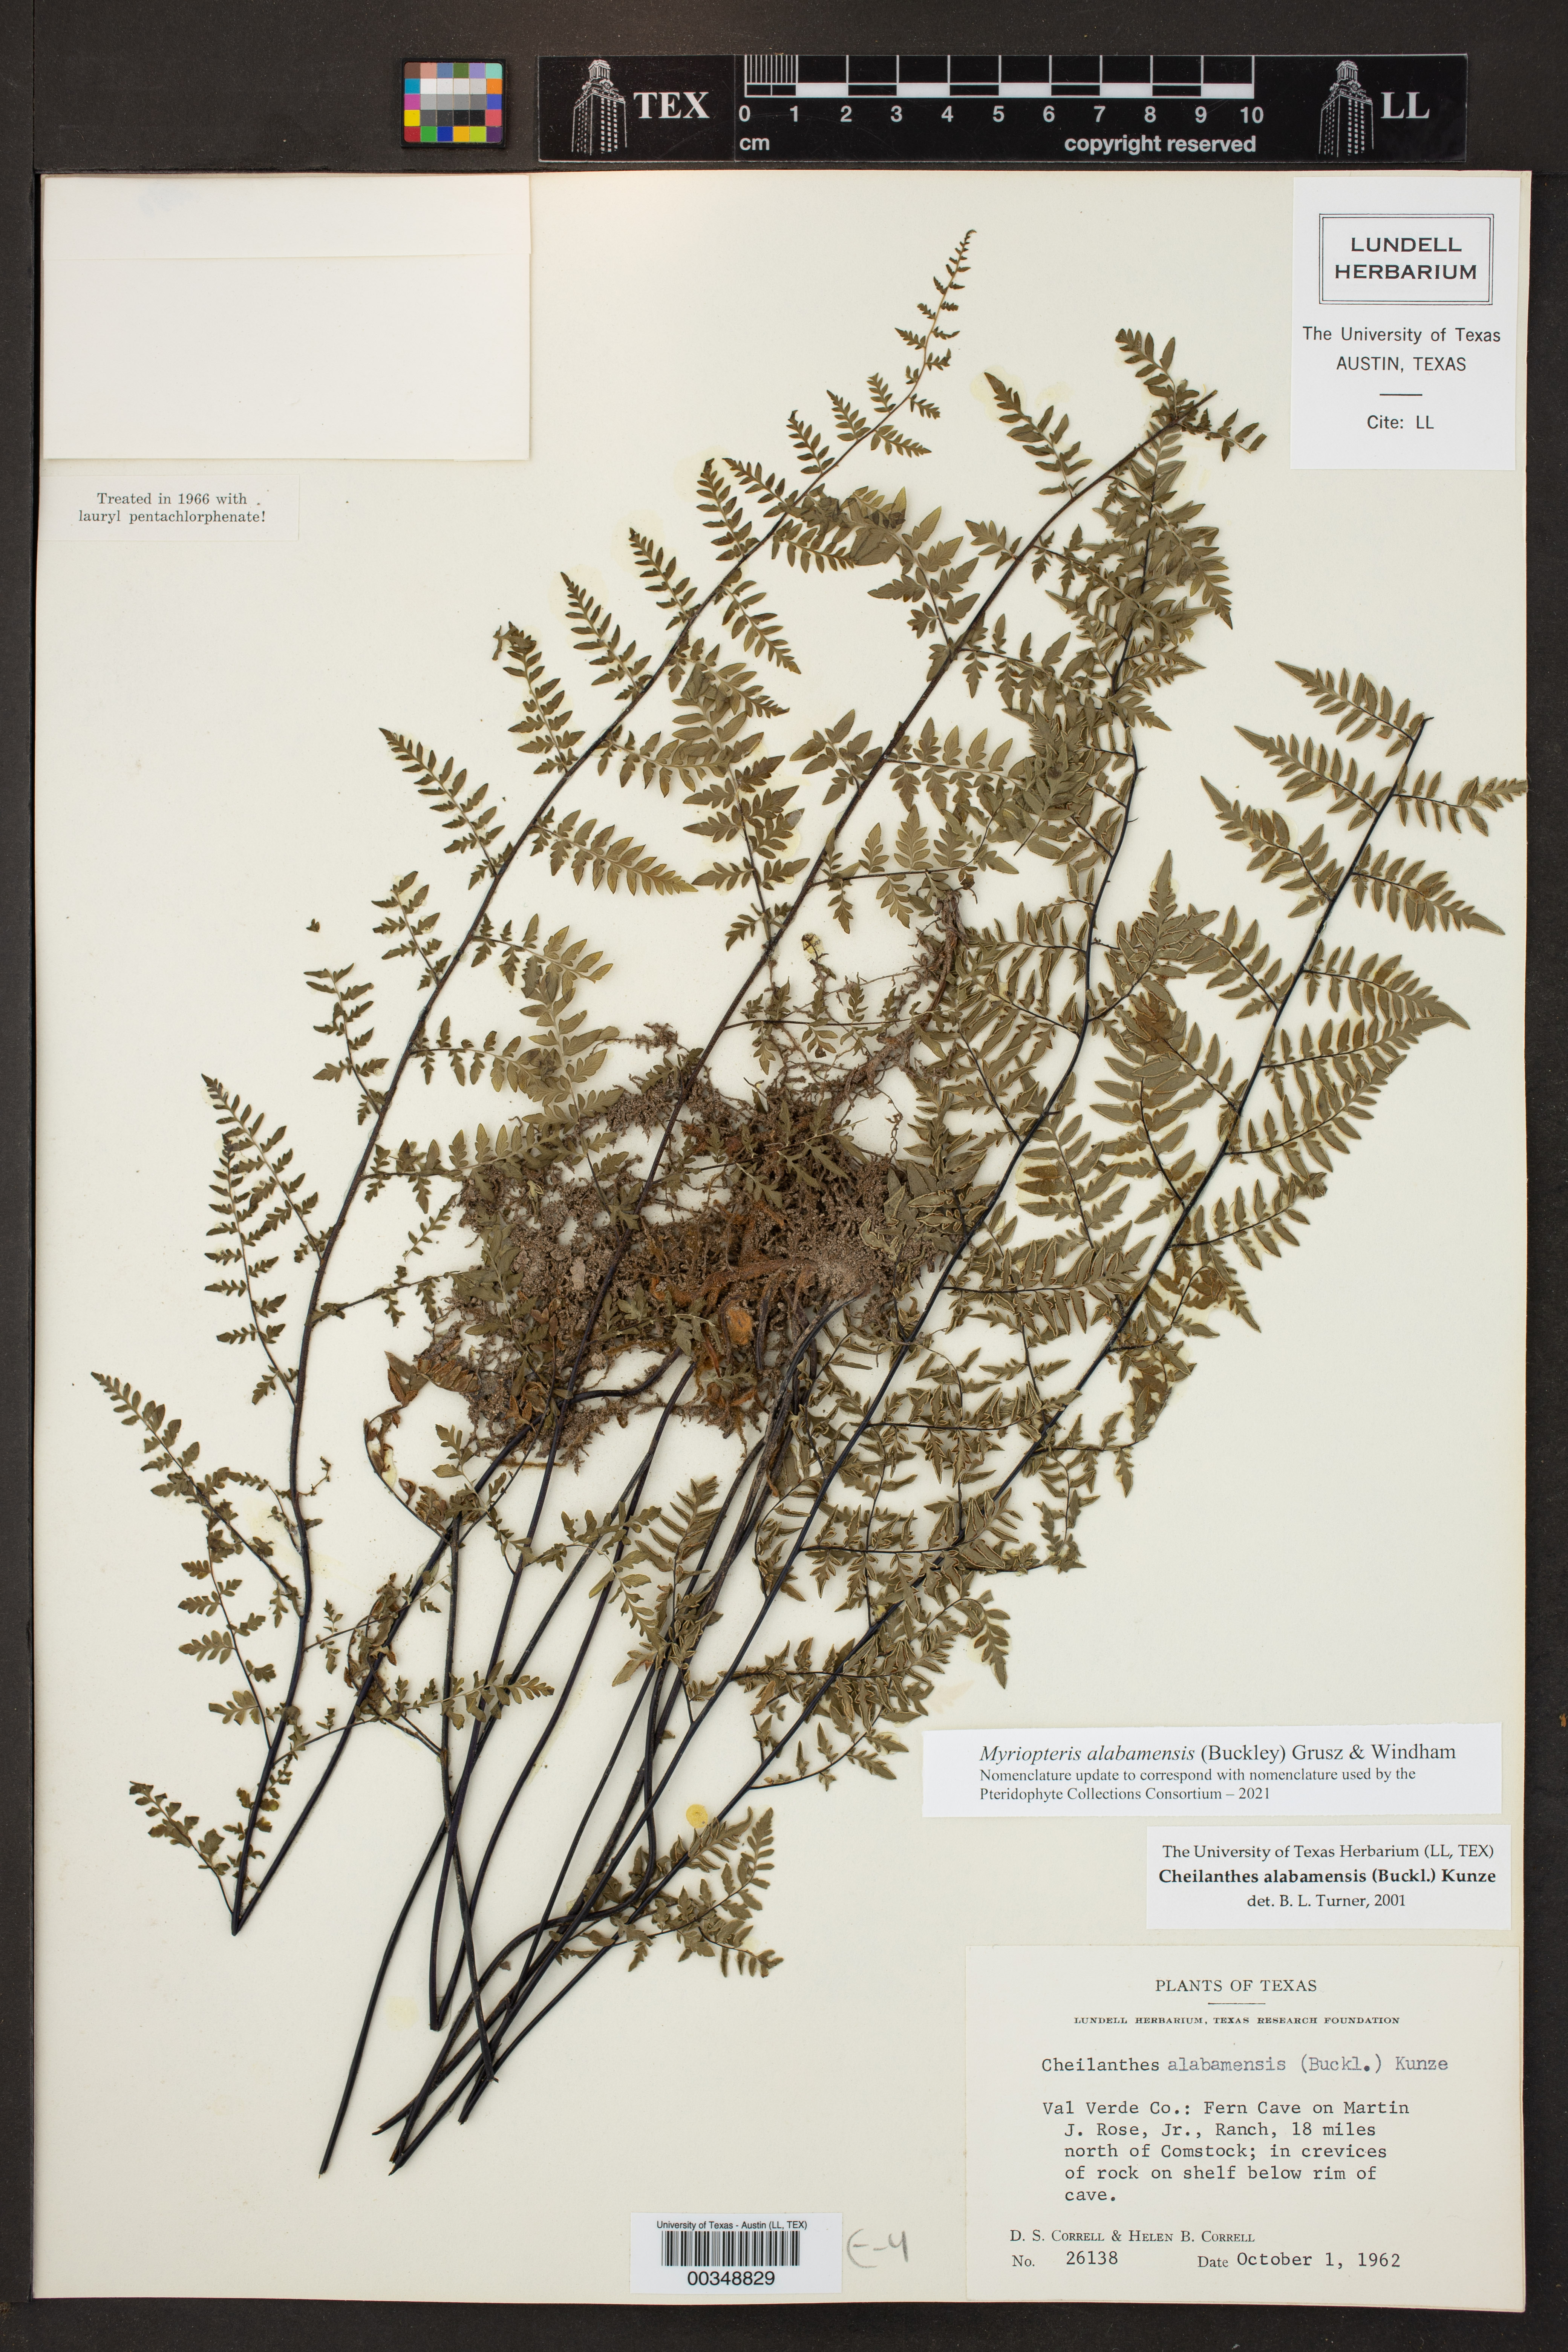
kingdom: Plantae
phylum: Tracheophyta
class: Polypodiopsida
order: Polypodiales
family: Pteridaceae
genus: Myriopteris
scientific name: Myriopteris alabamensis
